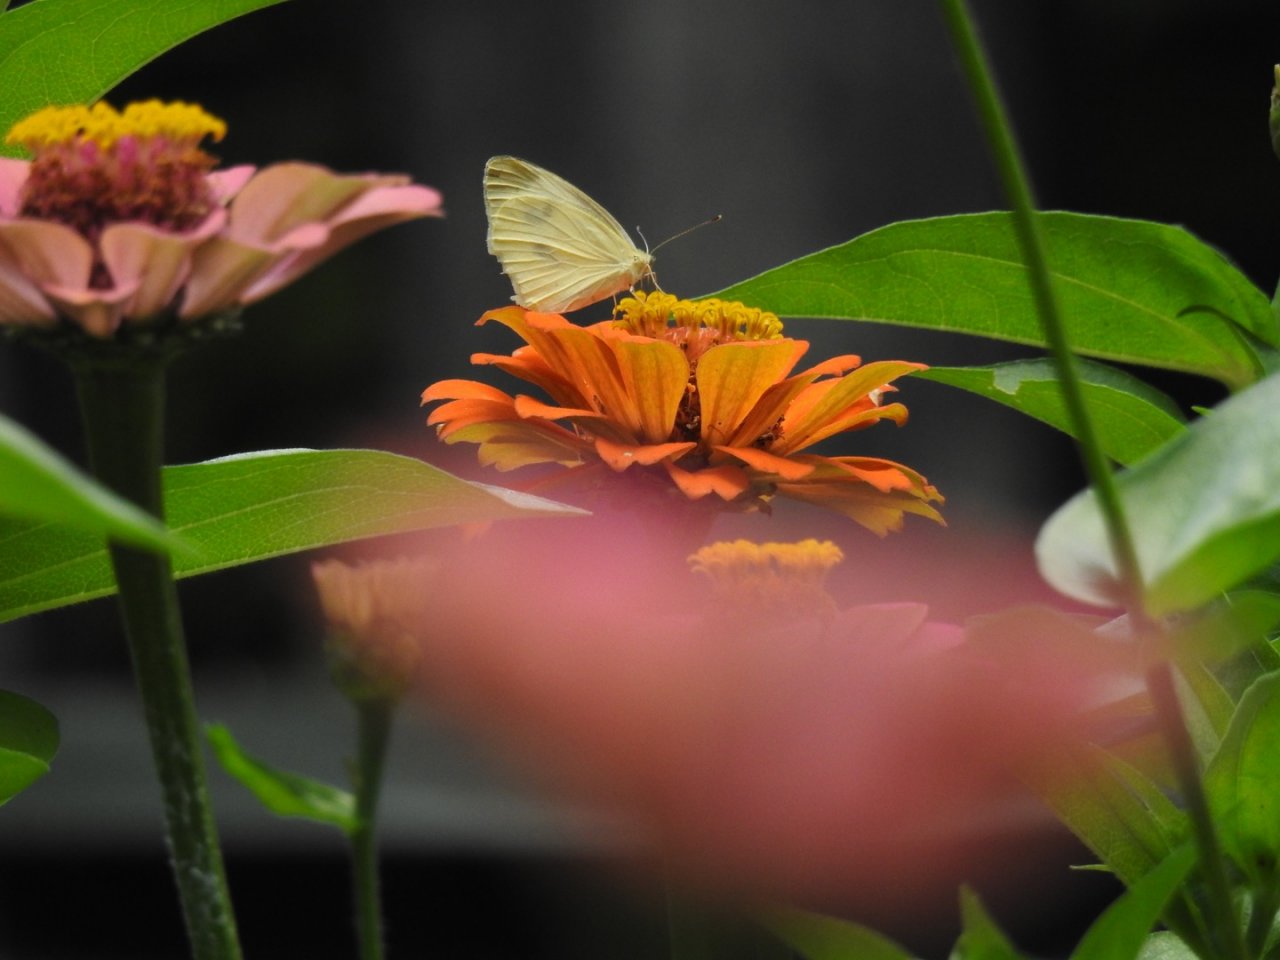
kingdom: Animalia
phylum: Arthropoda
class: Insecta
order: Lepidoptera
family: Pieridae
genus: Pieris
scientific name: Pieris rapae
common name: Cabbage White
